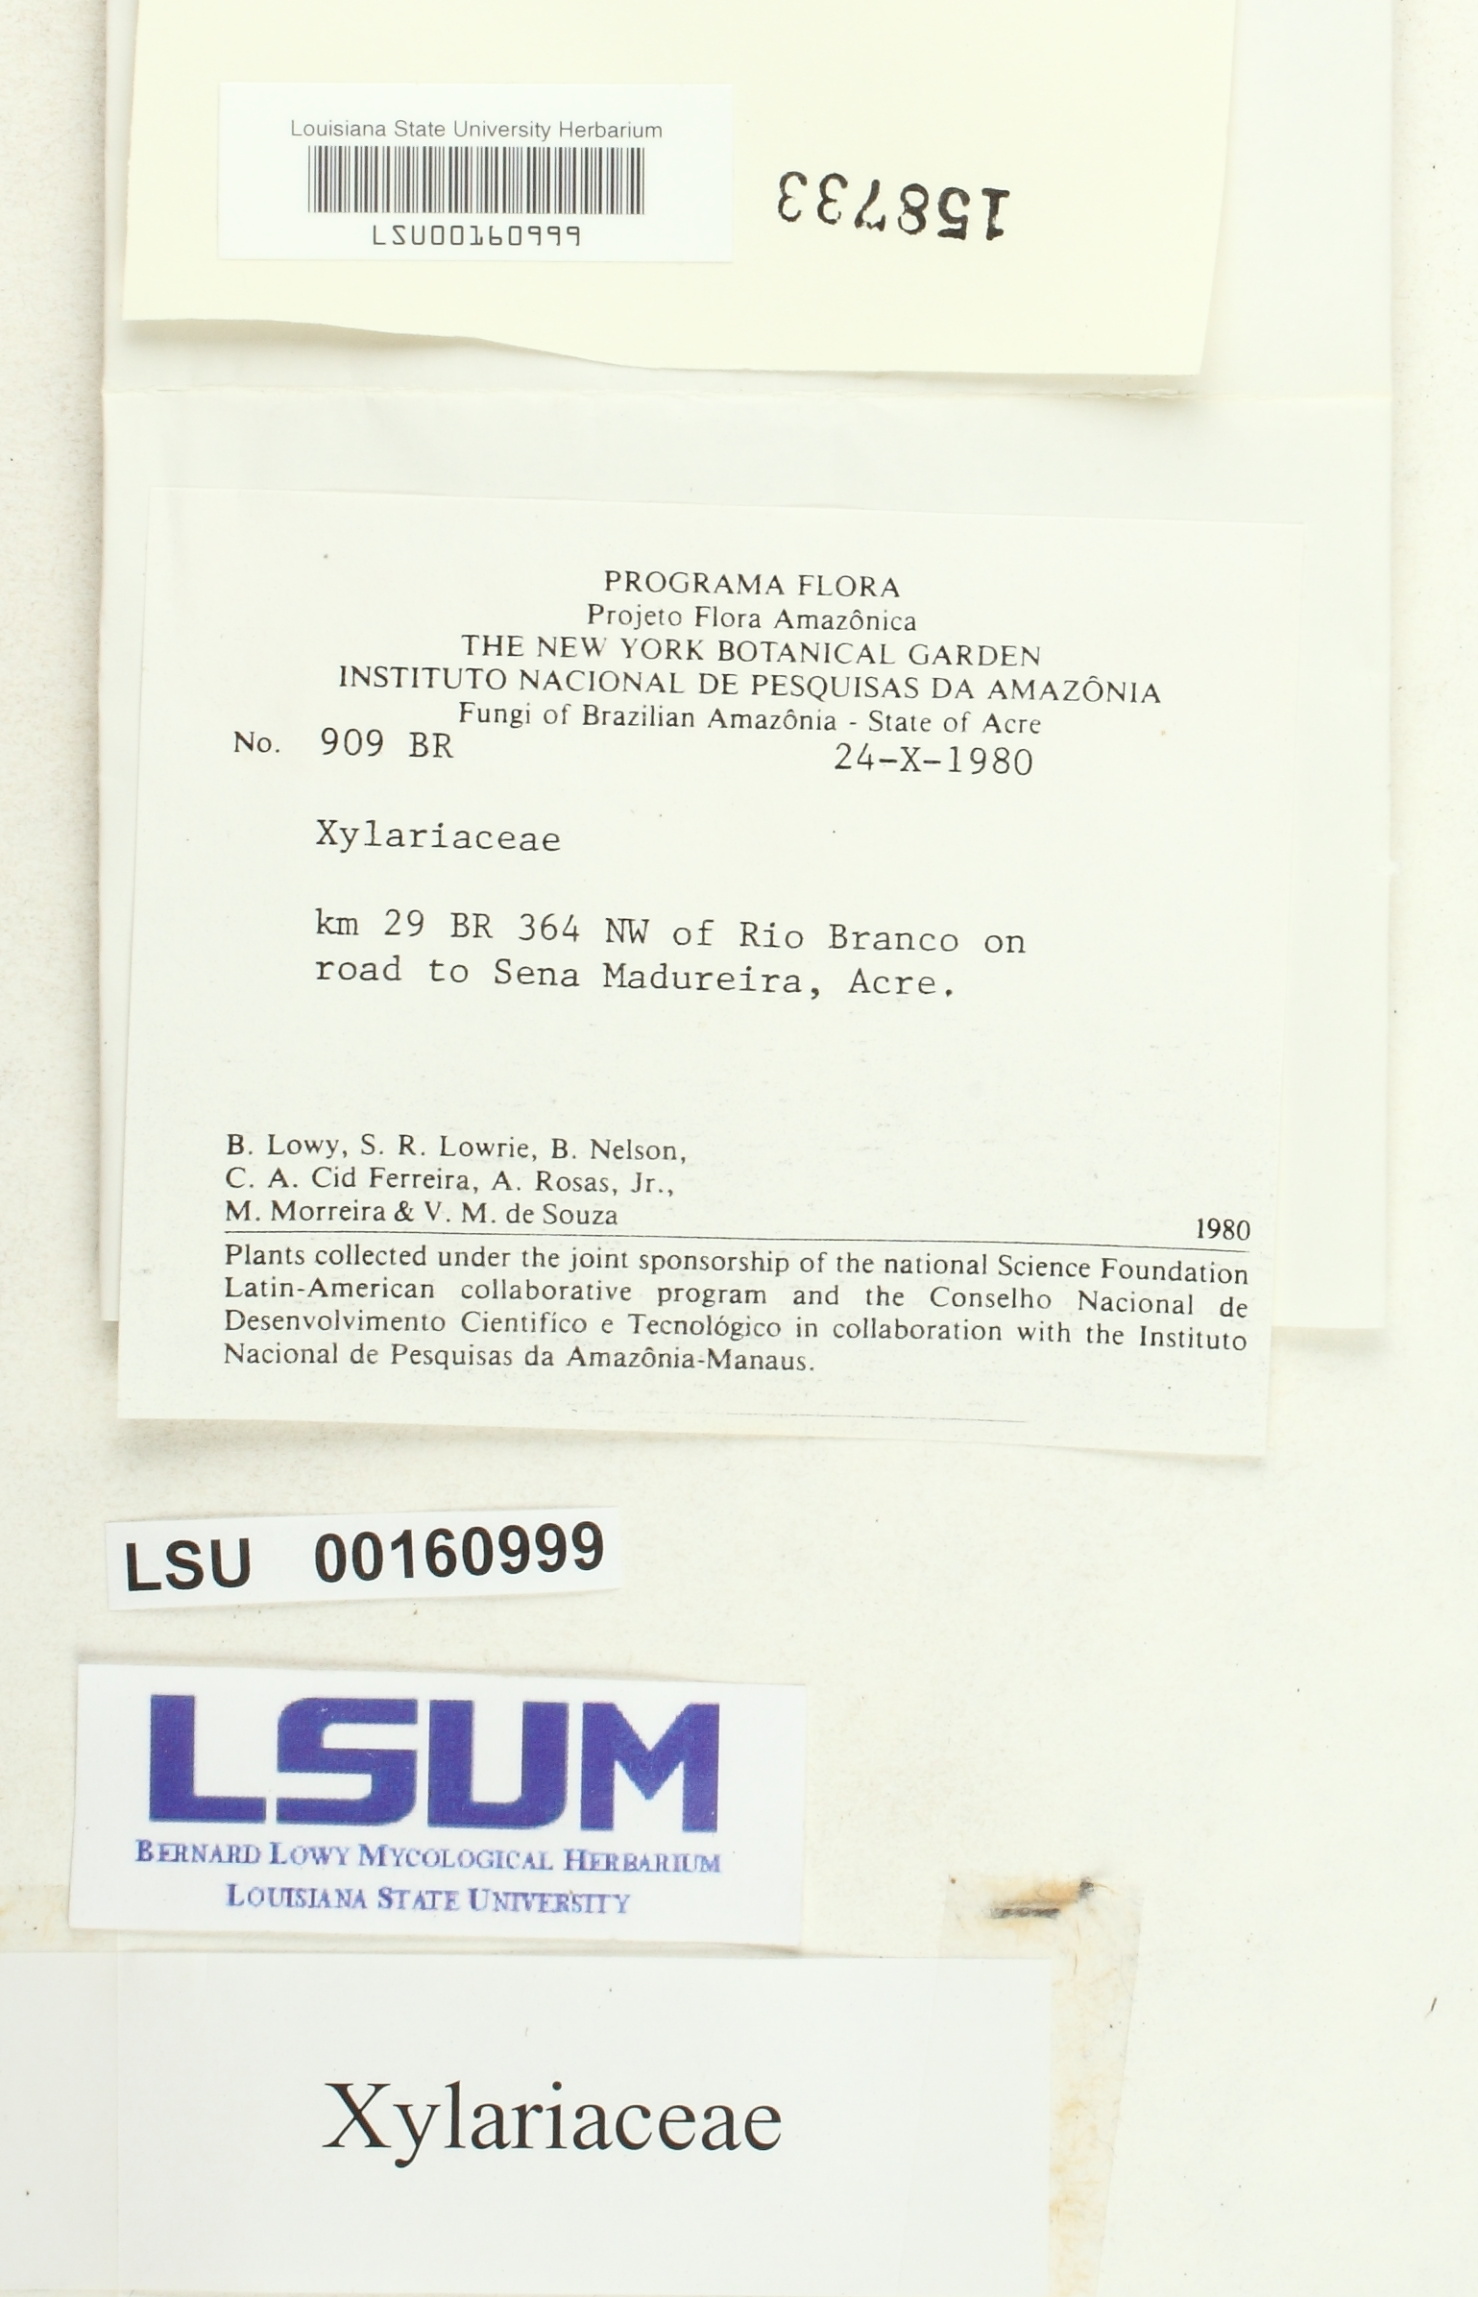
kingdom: Fungi
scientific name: Fungi
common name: Fungi
